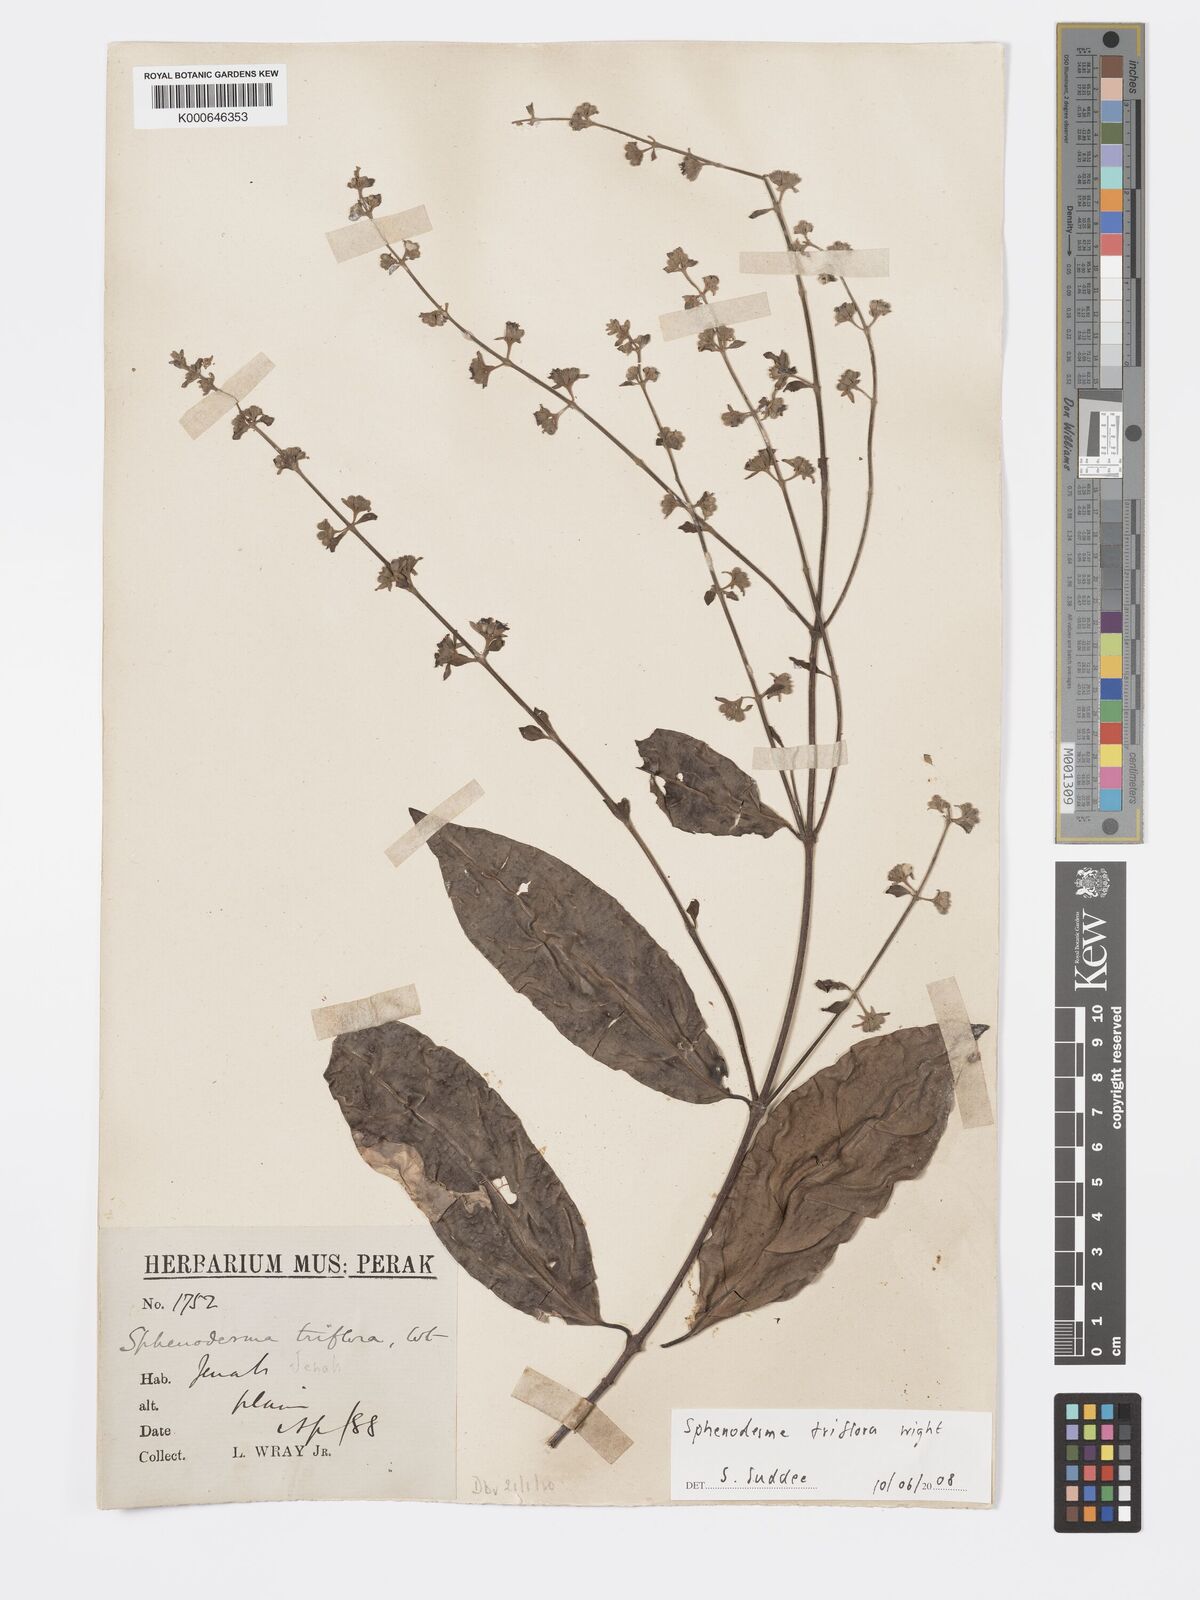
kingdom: Plantae
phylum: Tracheophyta
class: Magnoliopsida
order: Lamiales
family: Lamiaceae
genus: Sphenodesme
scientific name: Sphenodesme
